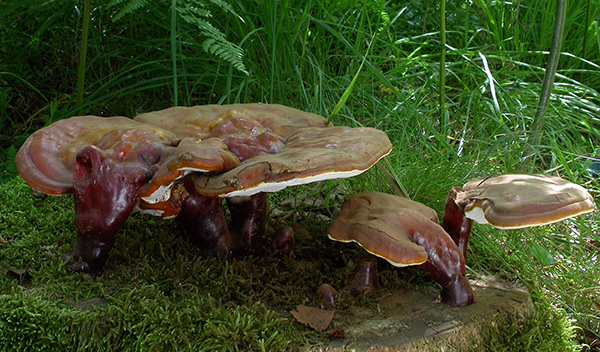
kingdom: Fungi
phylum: Basidiomycota
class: Agaricomycetes
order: Polyporales
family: Polyporaceae
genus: Ganoderma
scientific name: Ganoderma lucidum
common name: skinnende lakporesvamp
